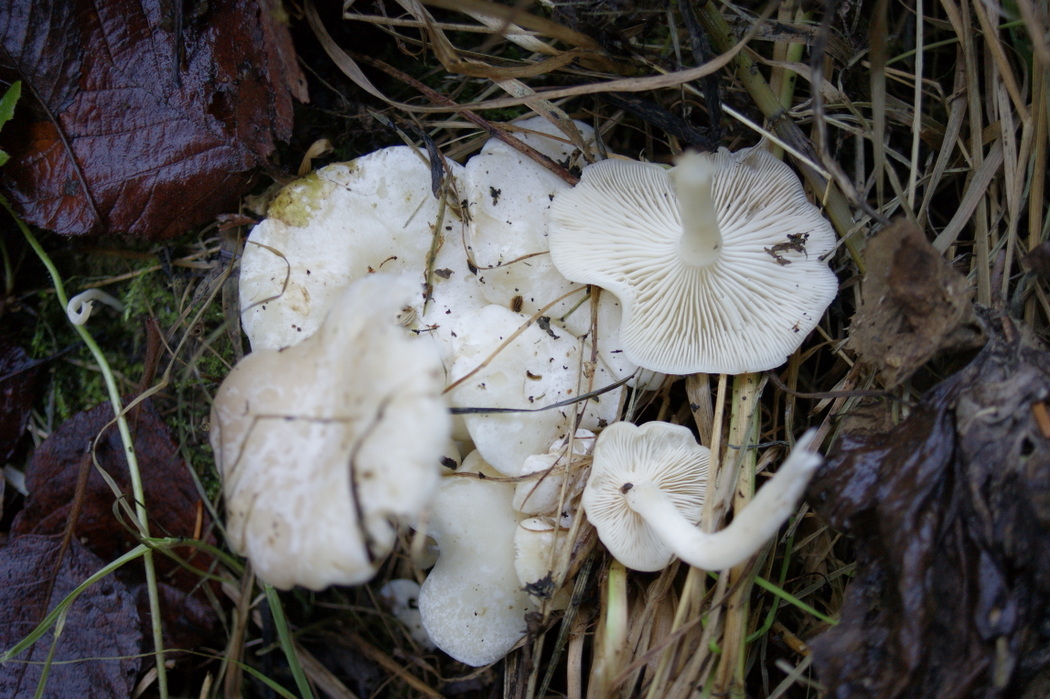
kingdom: Fungi
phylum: Basidiomycota
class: Agaricomycetes
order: Agaricales
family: Tricholomataceae
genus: Leucocybe
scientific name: Leucocybe connata
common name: knippe-tragthat
